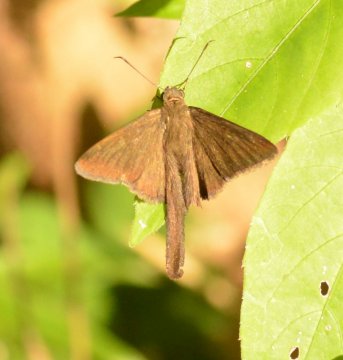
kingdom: Animalia
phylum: Arthropoda
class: Insecta
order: Lepidoptera
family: Hesperiidae
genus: Urbanus
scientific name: Urbanus procne
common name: Brown Longtail
